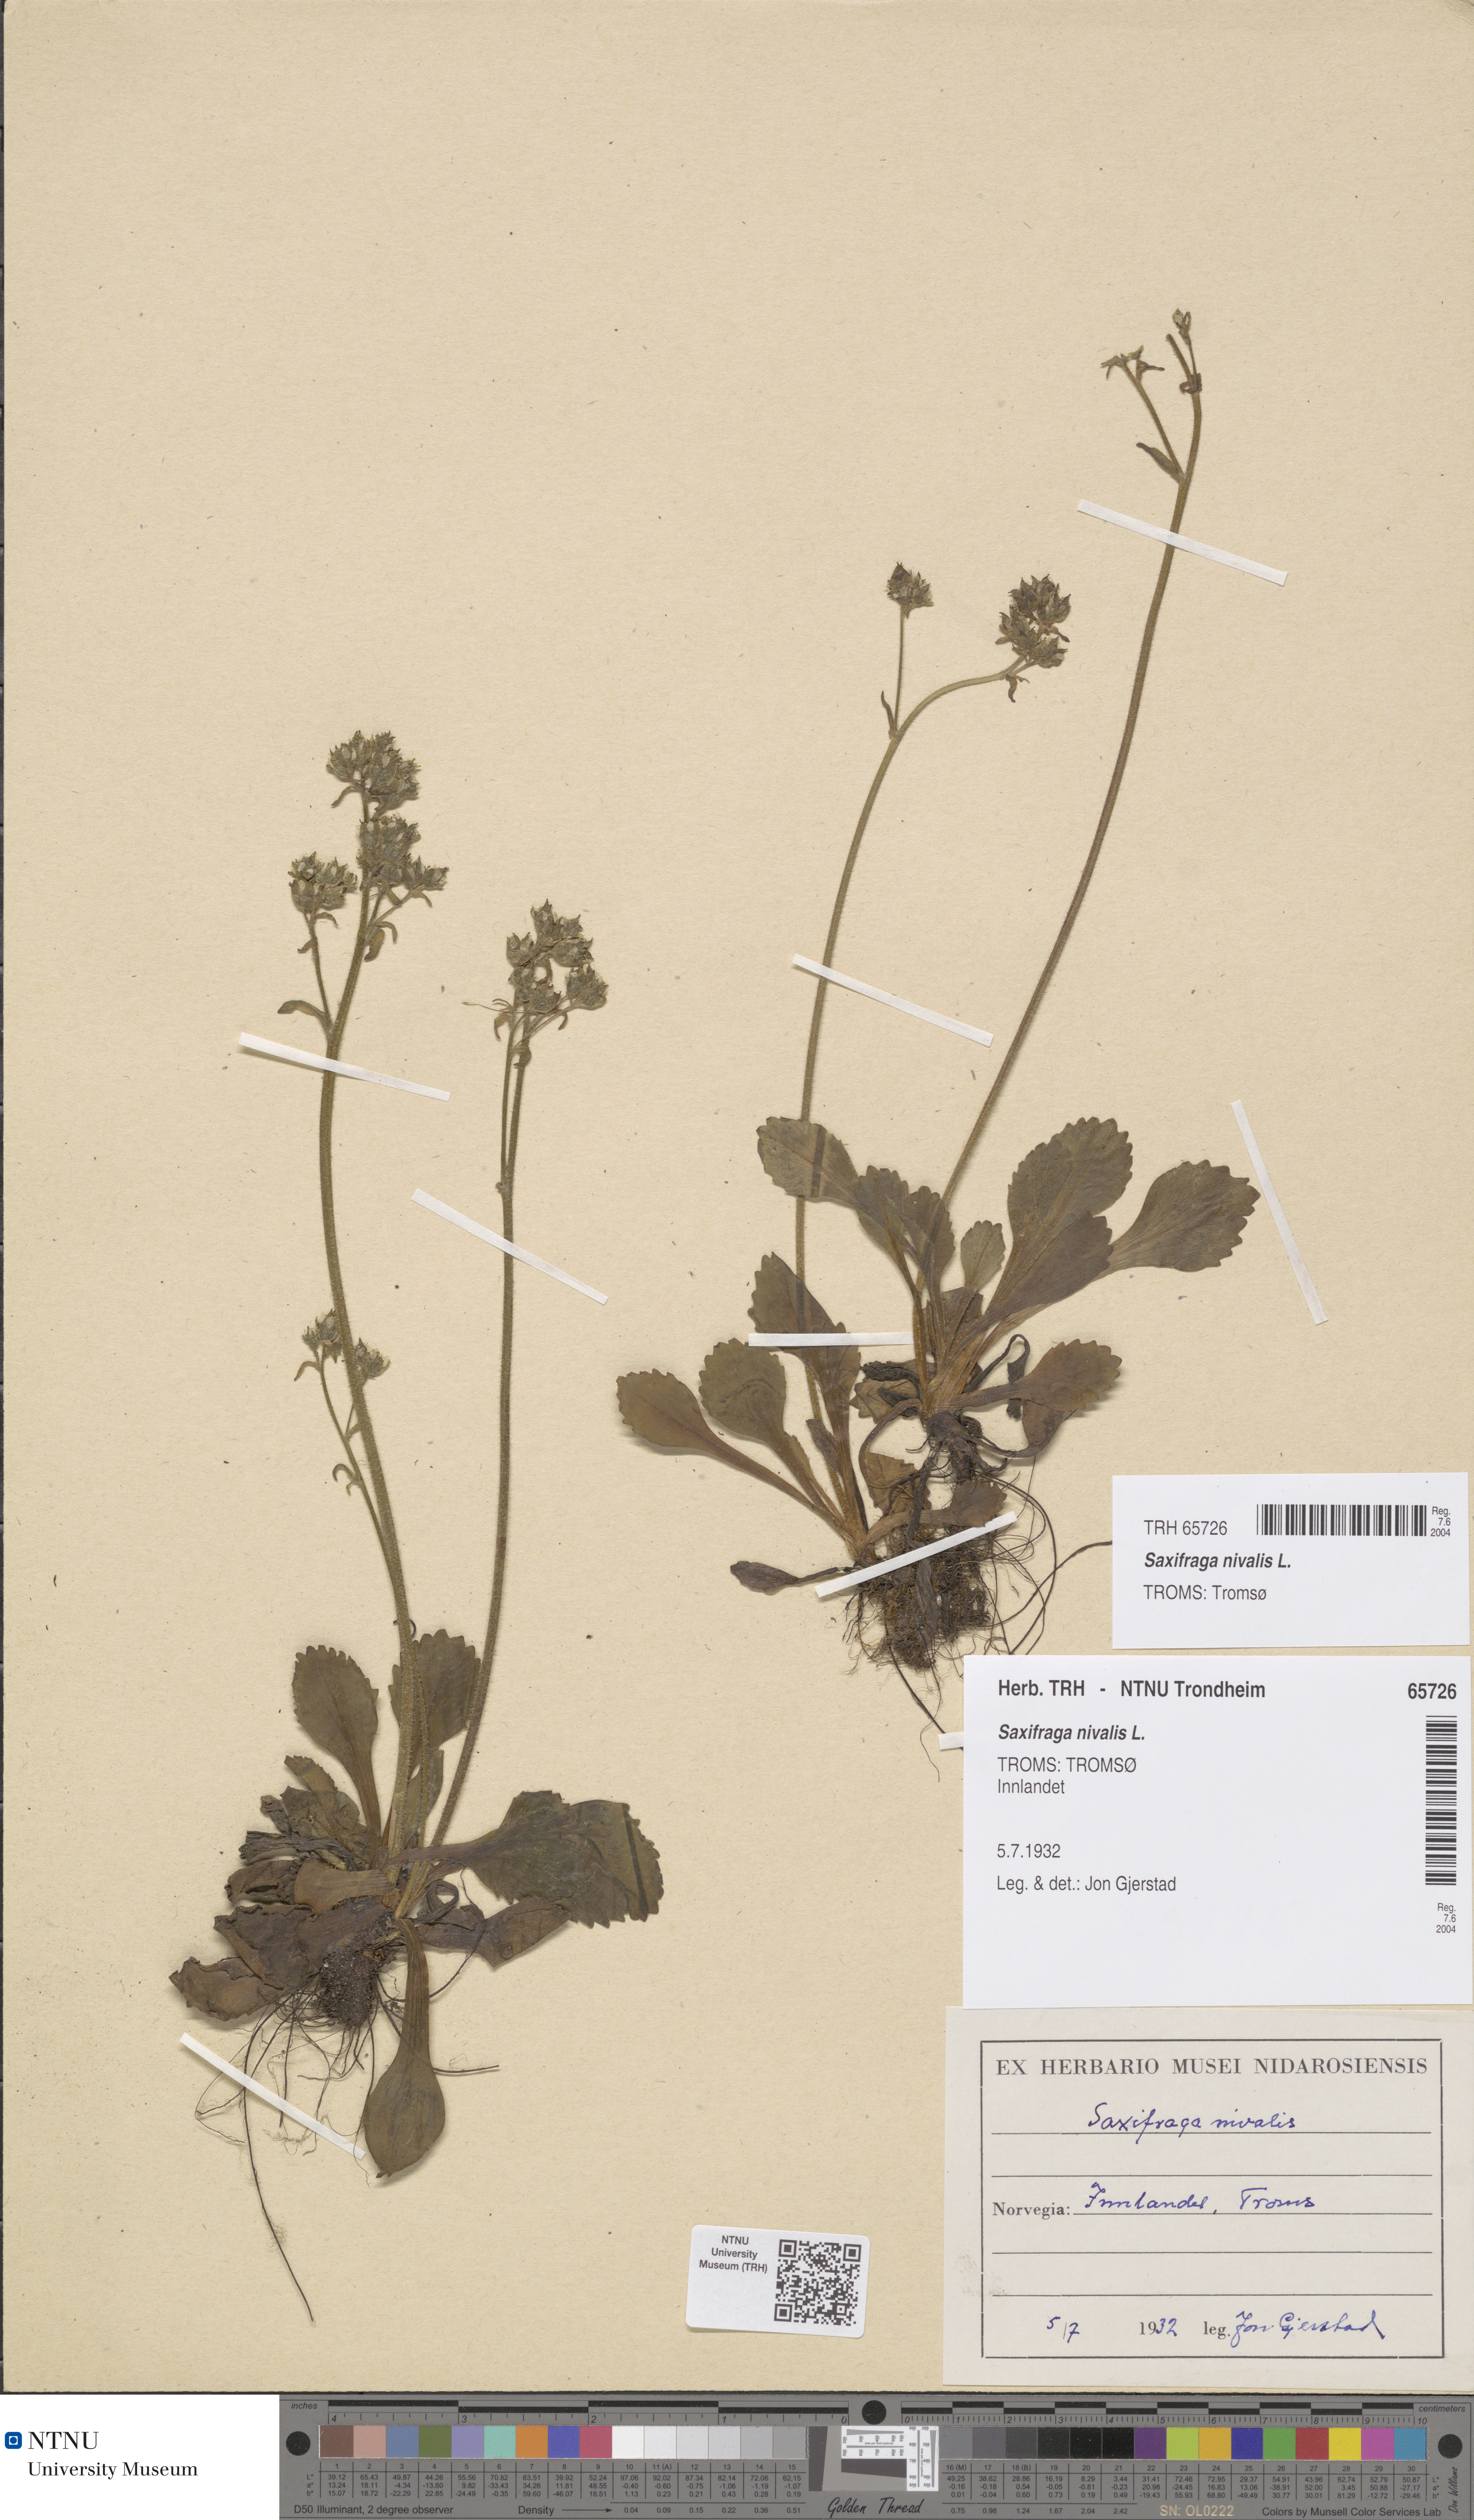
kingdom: Plantae
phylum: Tracheophyta
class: Magnoliopsida
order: Saxifragales
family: Saxifragaceae
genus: Micranthes
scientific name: Micranthes nivalis
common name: Alpine saxifrage
